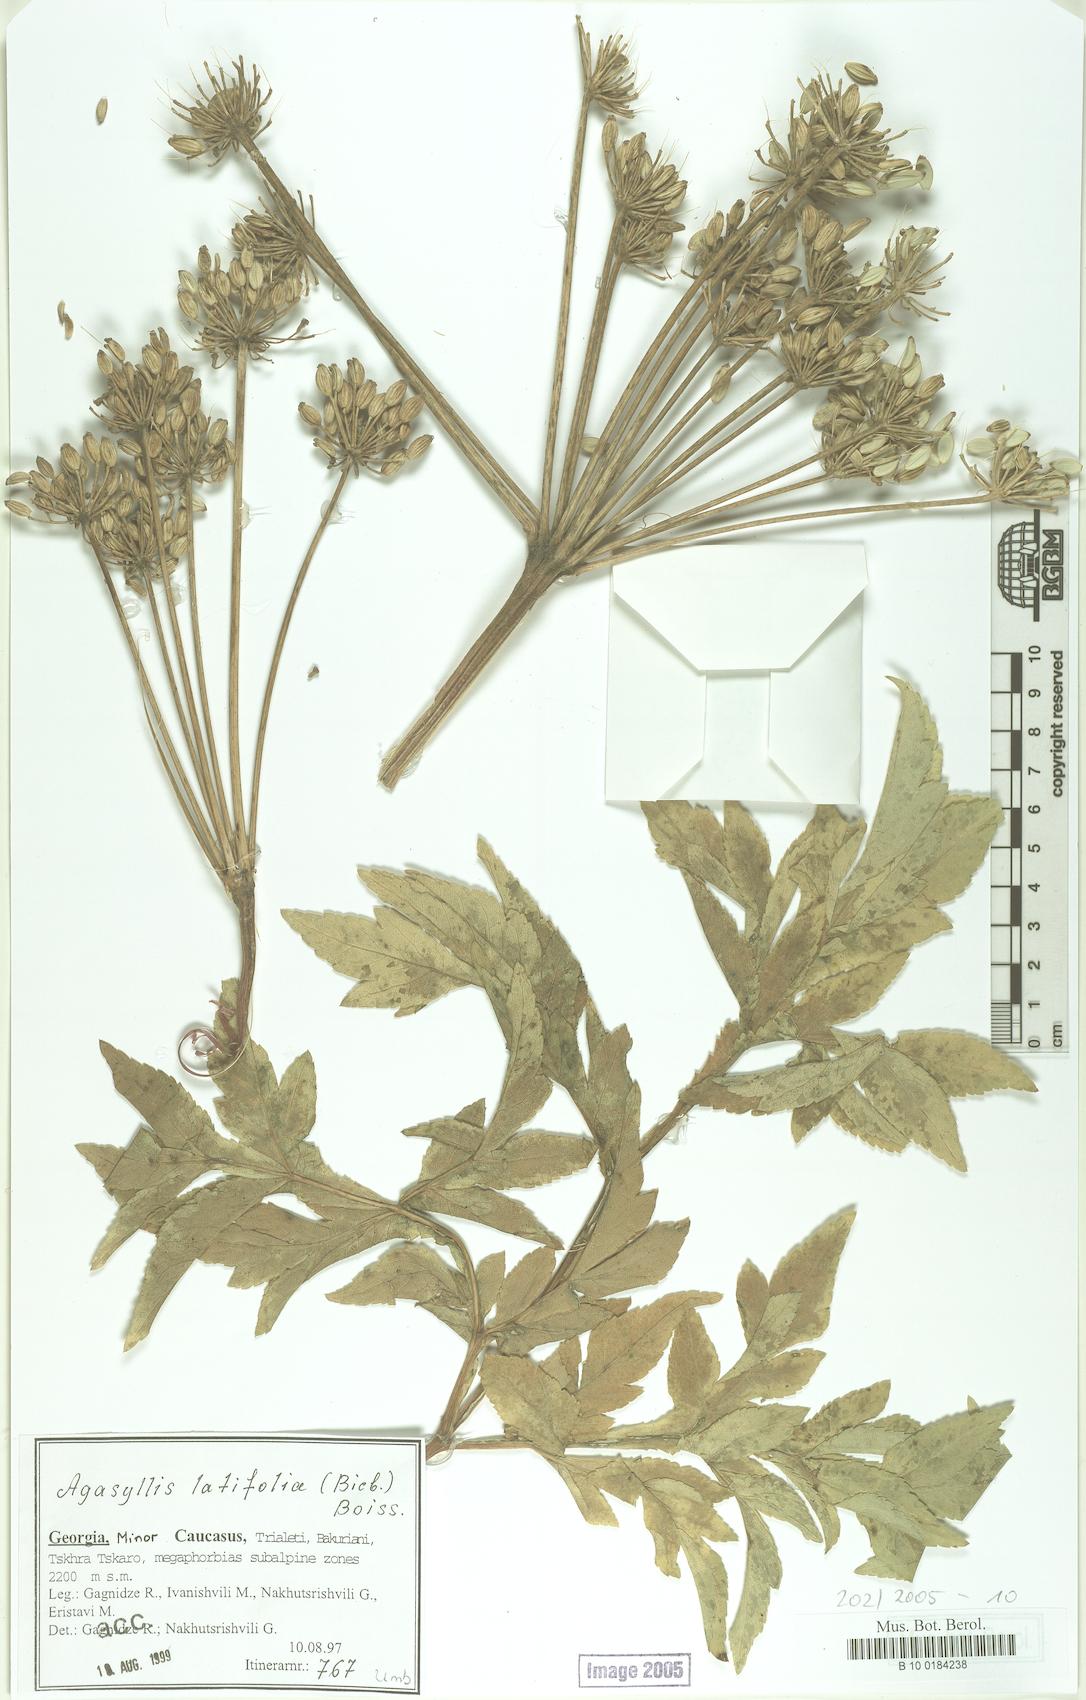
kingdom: Plantae
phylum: Tracheophyta
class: Magnoliopsida
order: Apiales
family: Apiaceae
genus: Agasyllis
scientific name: Agasyllis latifolia
